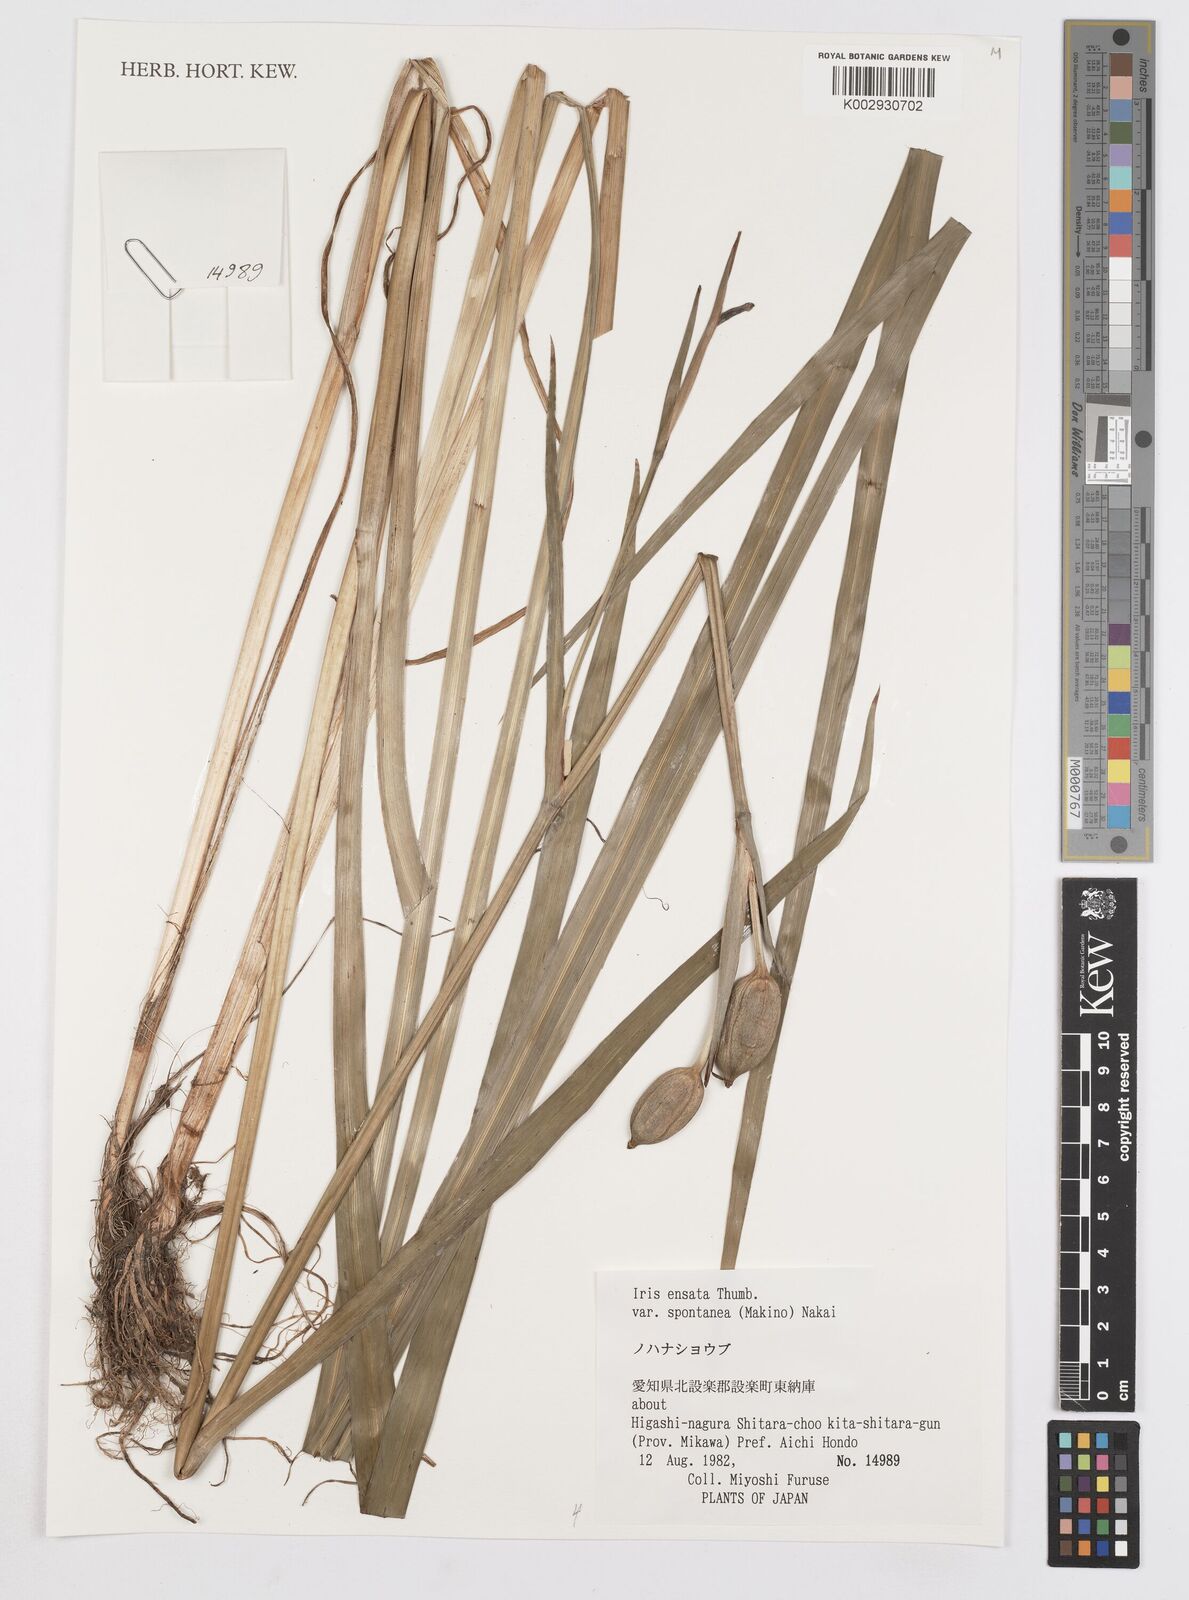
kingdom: Plantae
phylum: Tracheophyta
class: Liliopsida
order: Asparagales
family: Iridaceae
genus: Iris
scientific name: Iris ensata
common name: Beaked iris
